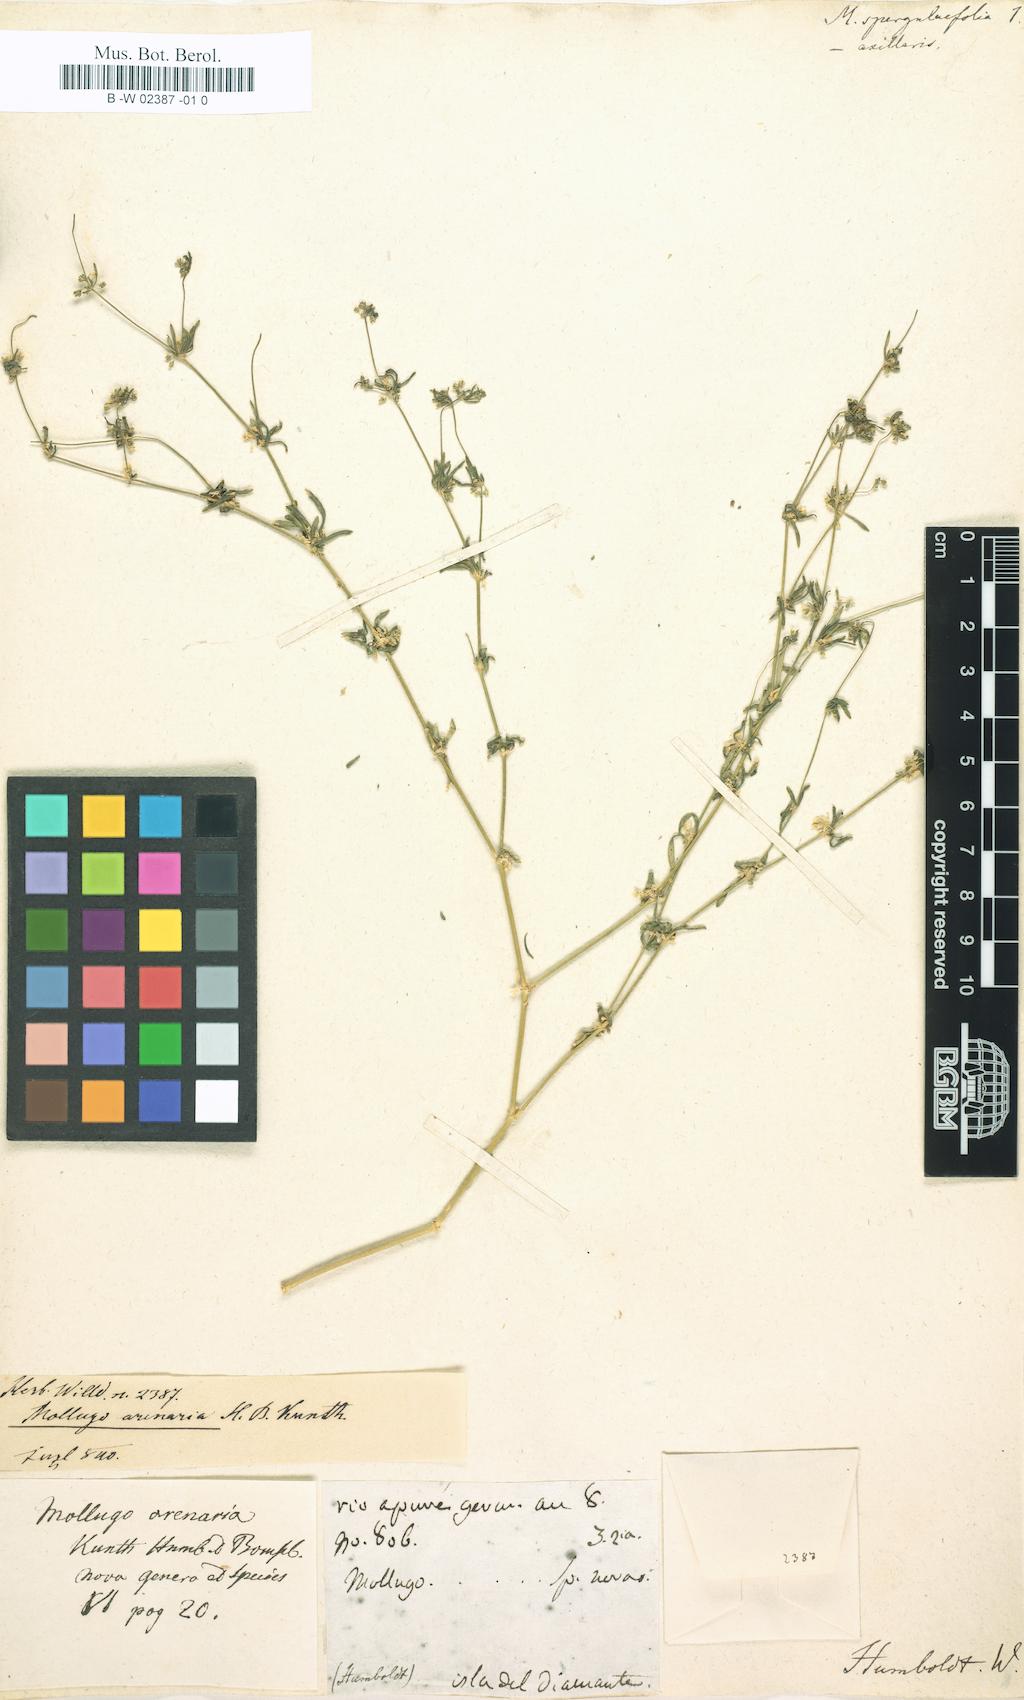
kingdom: Plantae
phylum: Tracheophyta
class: Magnoliopsida
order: Caryophyllales
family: Molluginaceae
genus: Mollugo
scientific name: Mollugo verticillata
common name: Green carpetweed
